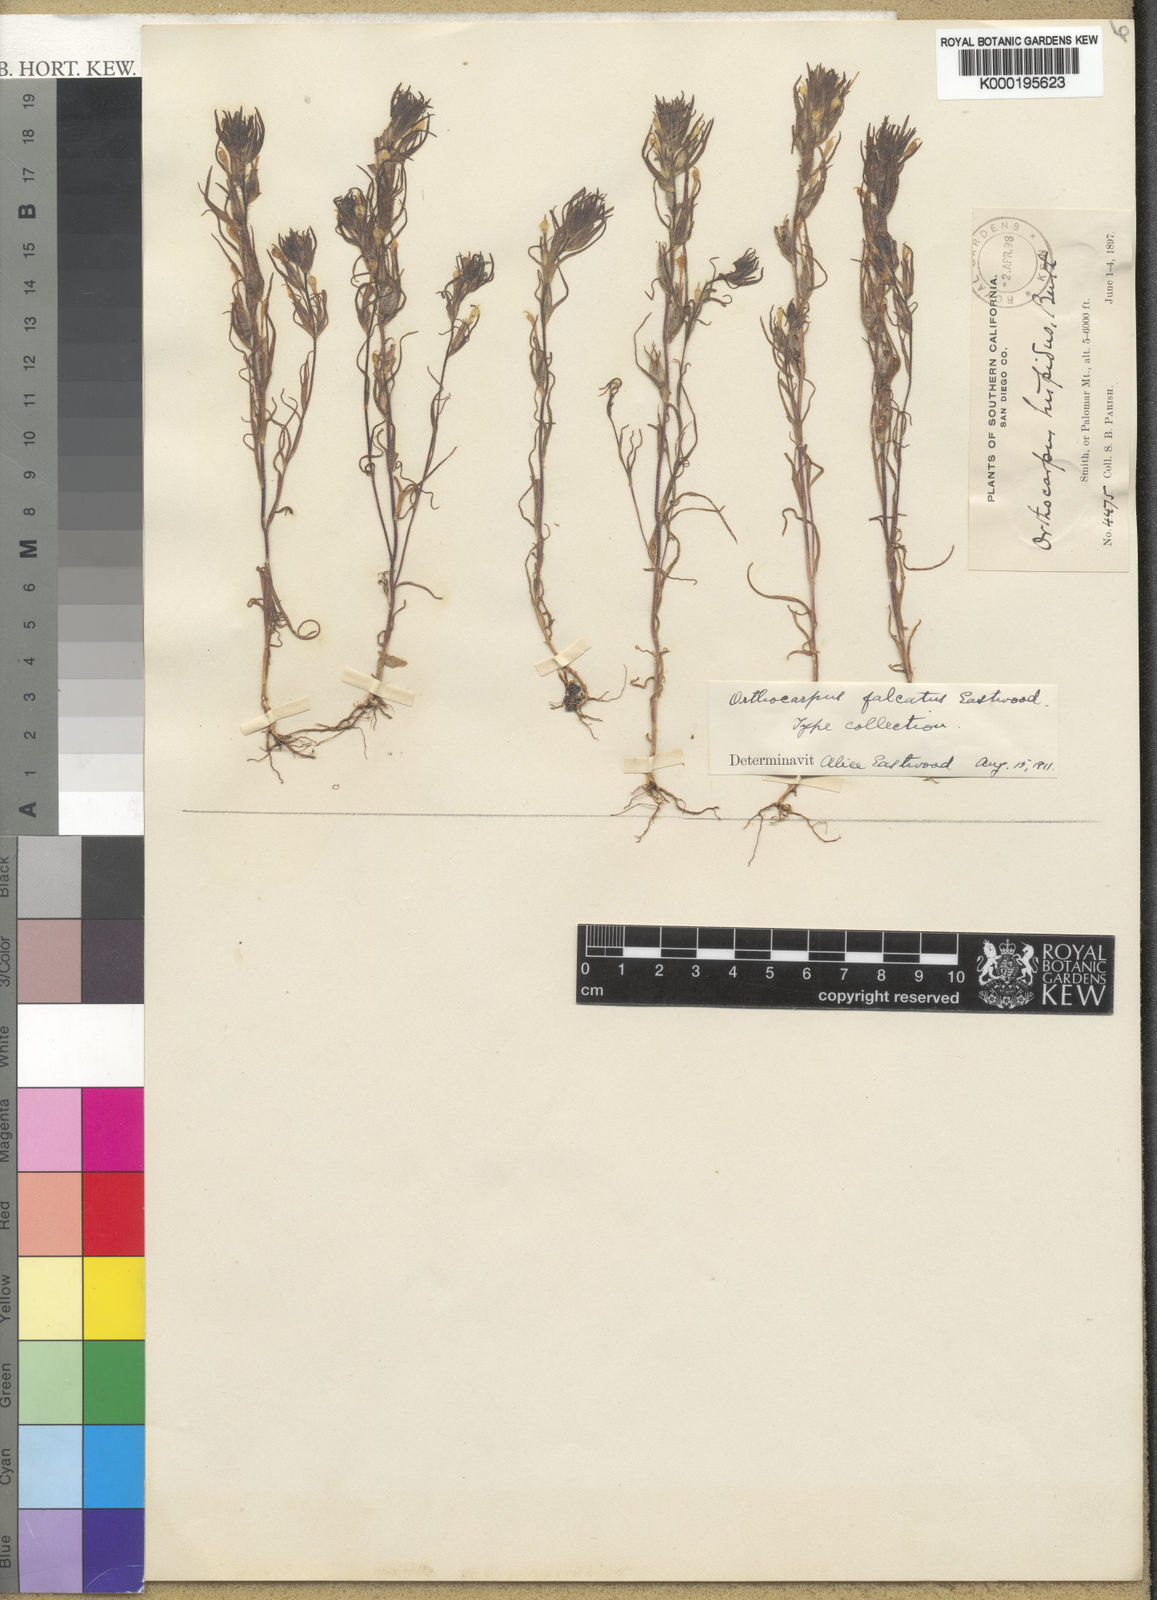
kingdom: Plantae
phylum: Tracheophyta
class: Magnoliopsida
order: Lamiales
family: Orobanchaceae
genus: Castilleja
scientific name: Castilleja tenuis
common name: Hairy indian paintbrush
